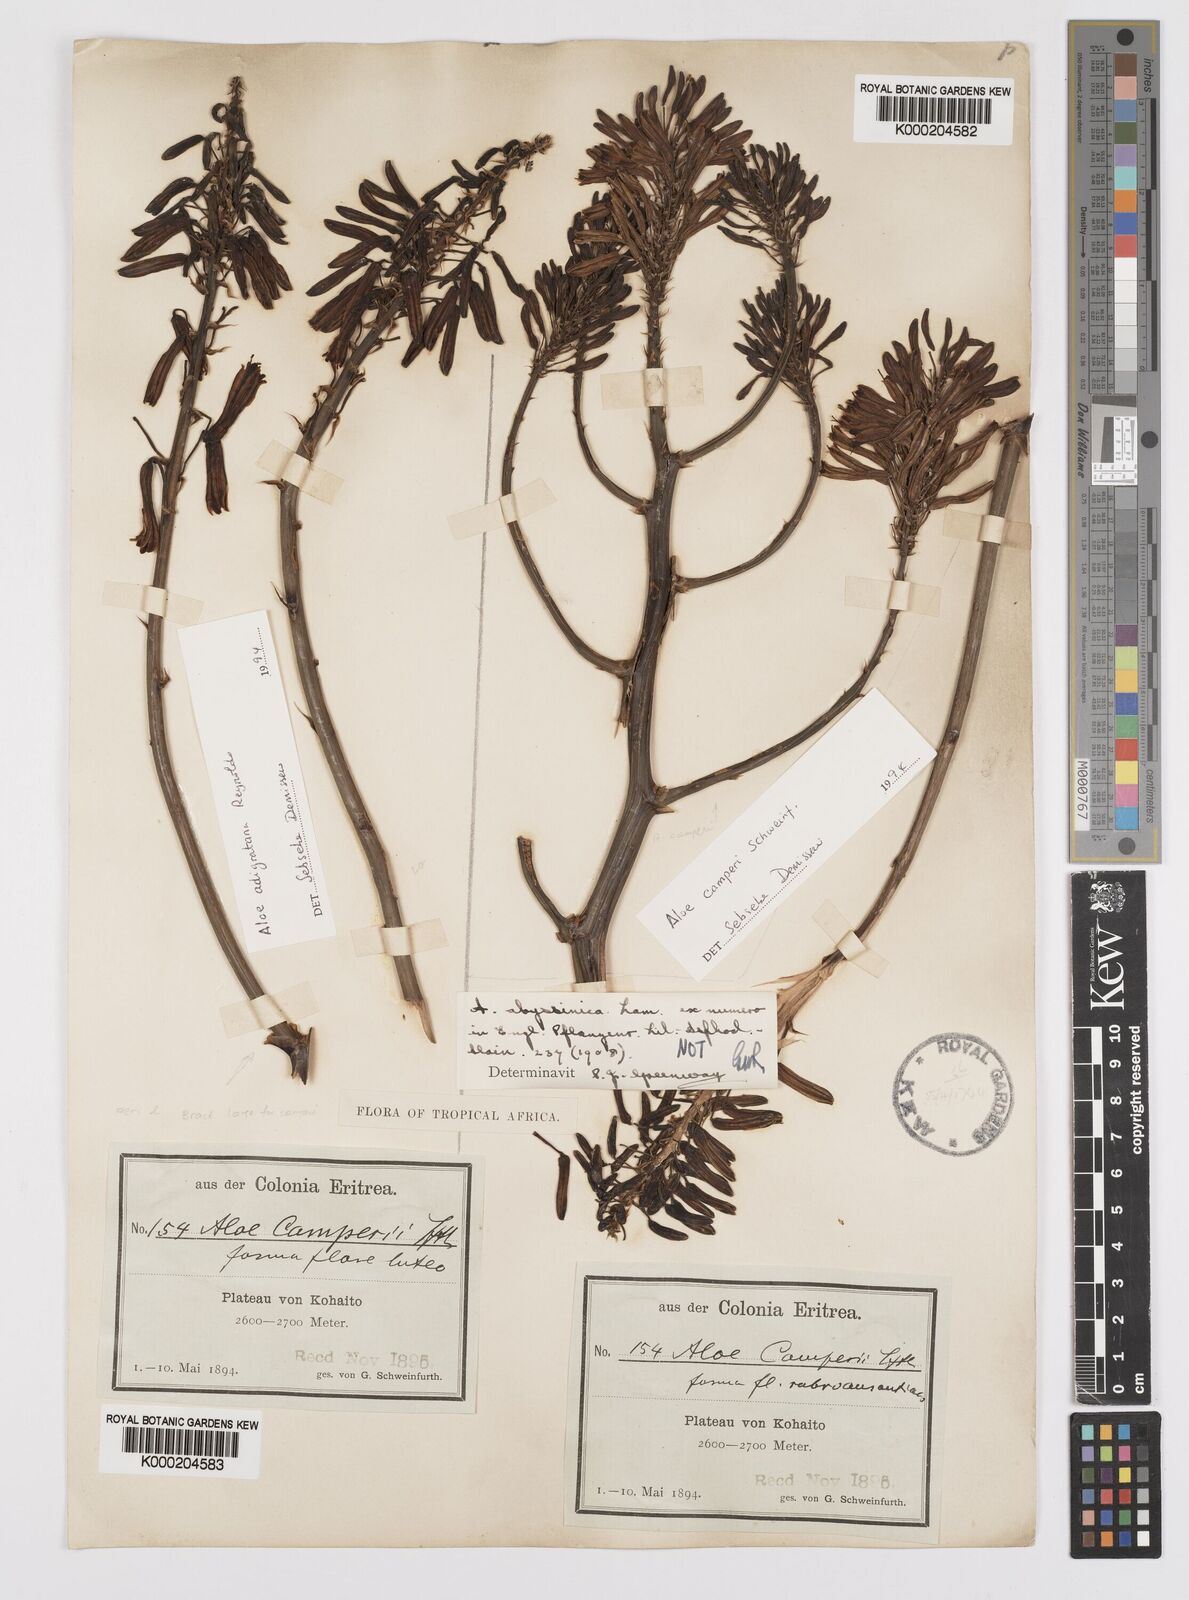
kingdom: Plantae
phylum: Tracheophyta
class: Liliopsida
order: Asparagales
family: Asphodelaceae
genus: Aloe
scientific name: Aloe camperi
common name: Camper's aloe
